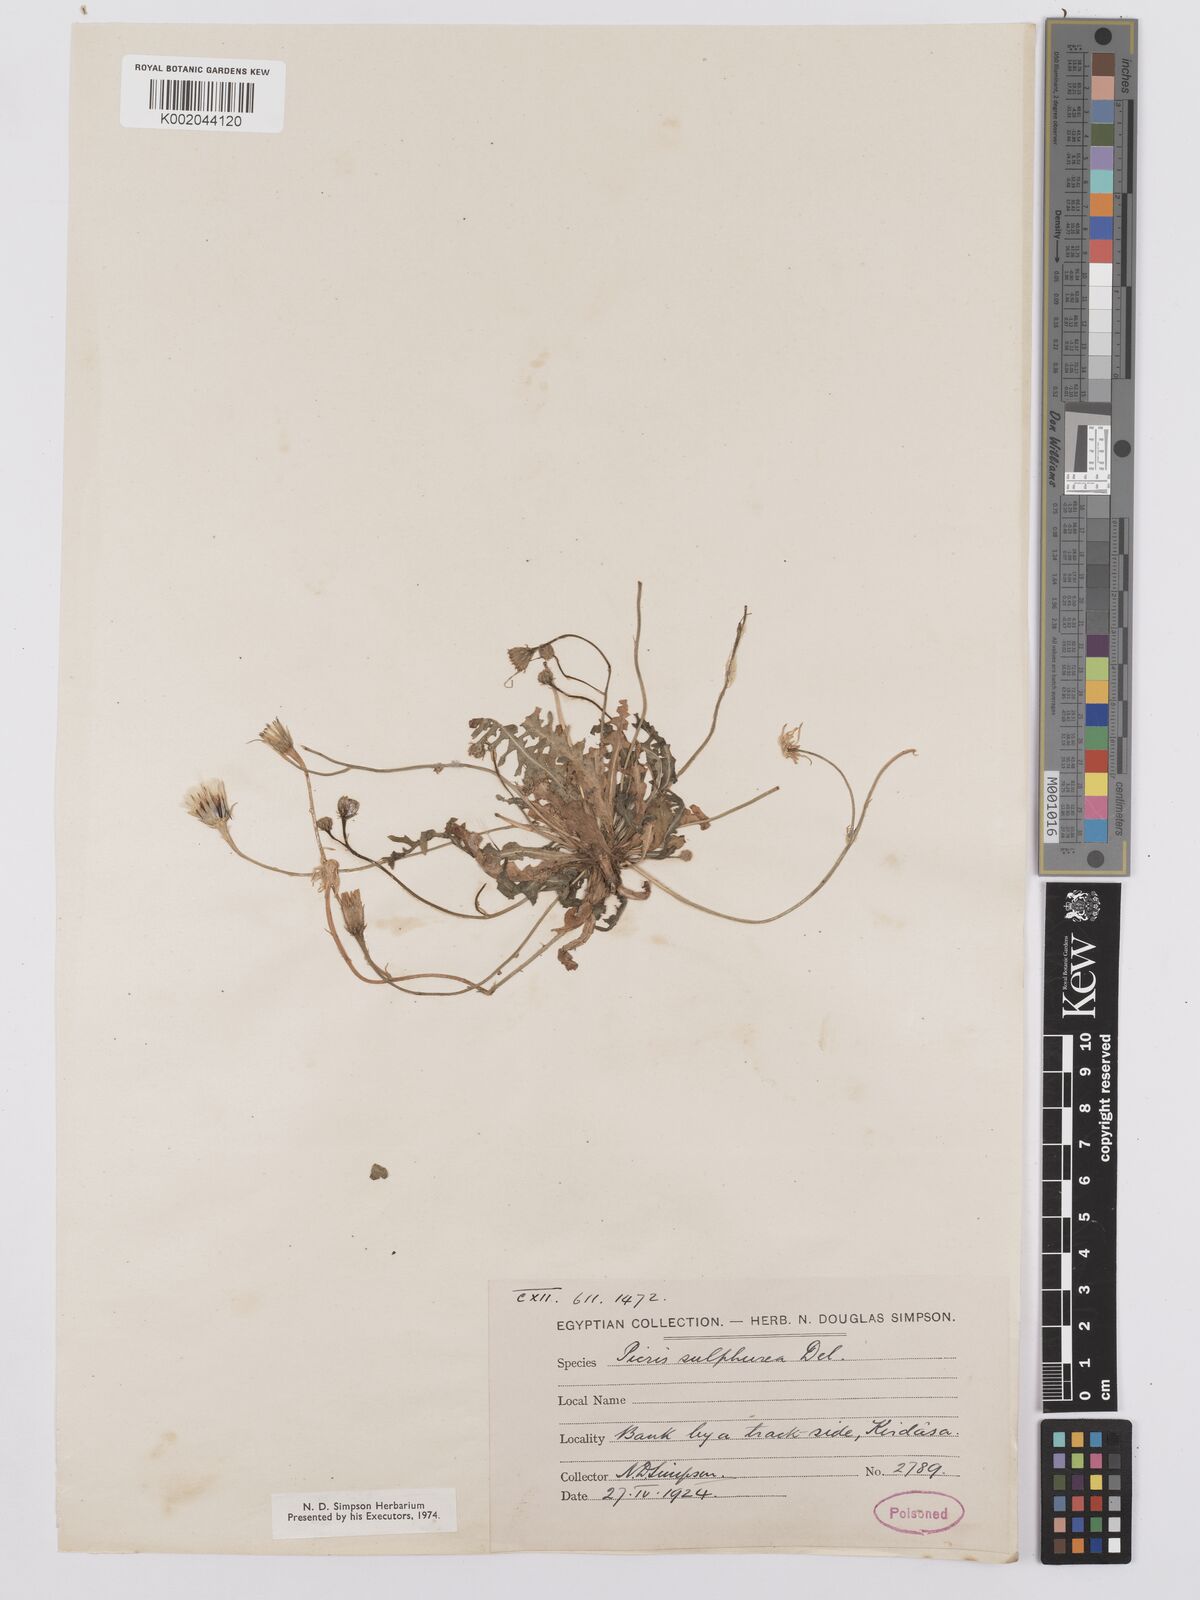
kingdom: Plantae
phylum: Tracheophyta
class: Magnoliopsida
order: Asterales
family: Asteraceae
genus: Picris
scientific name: Picris sulphurea
